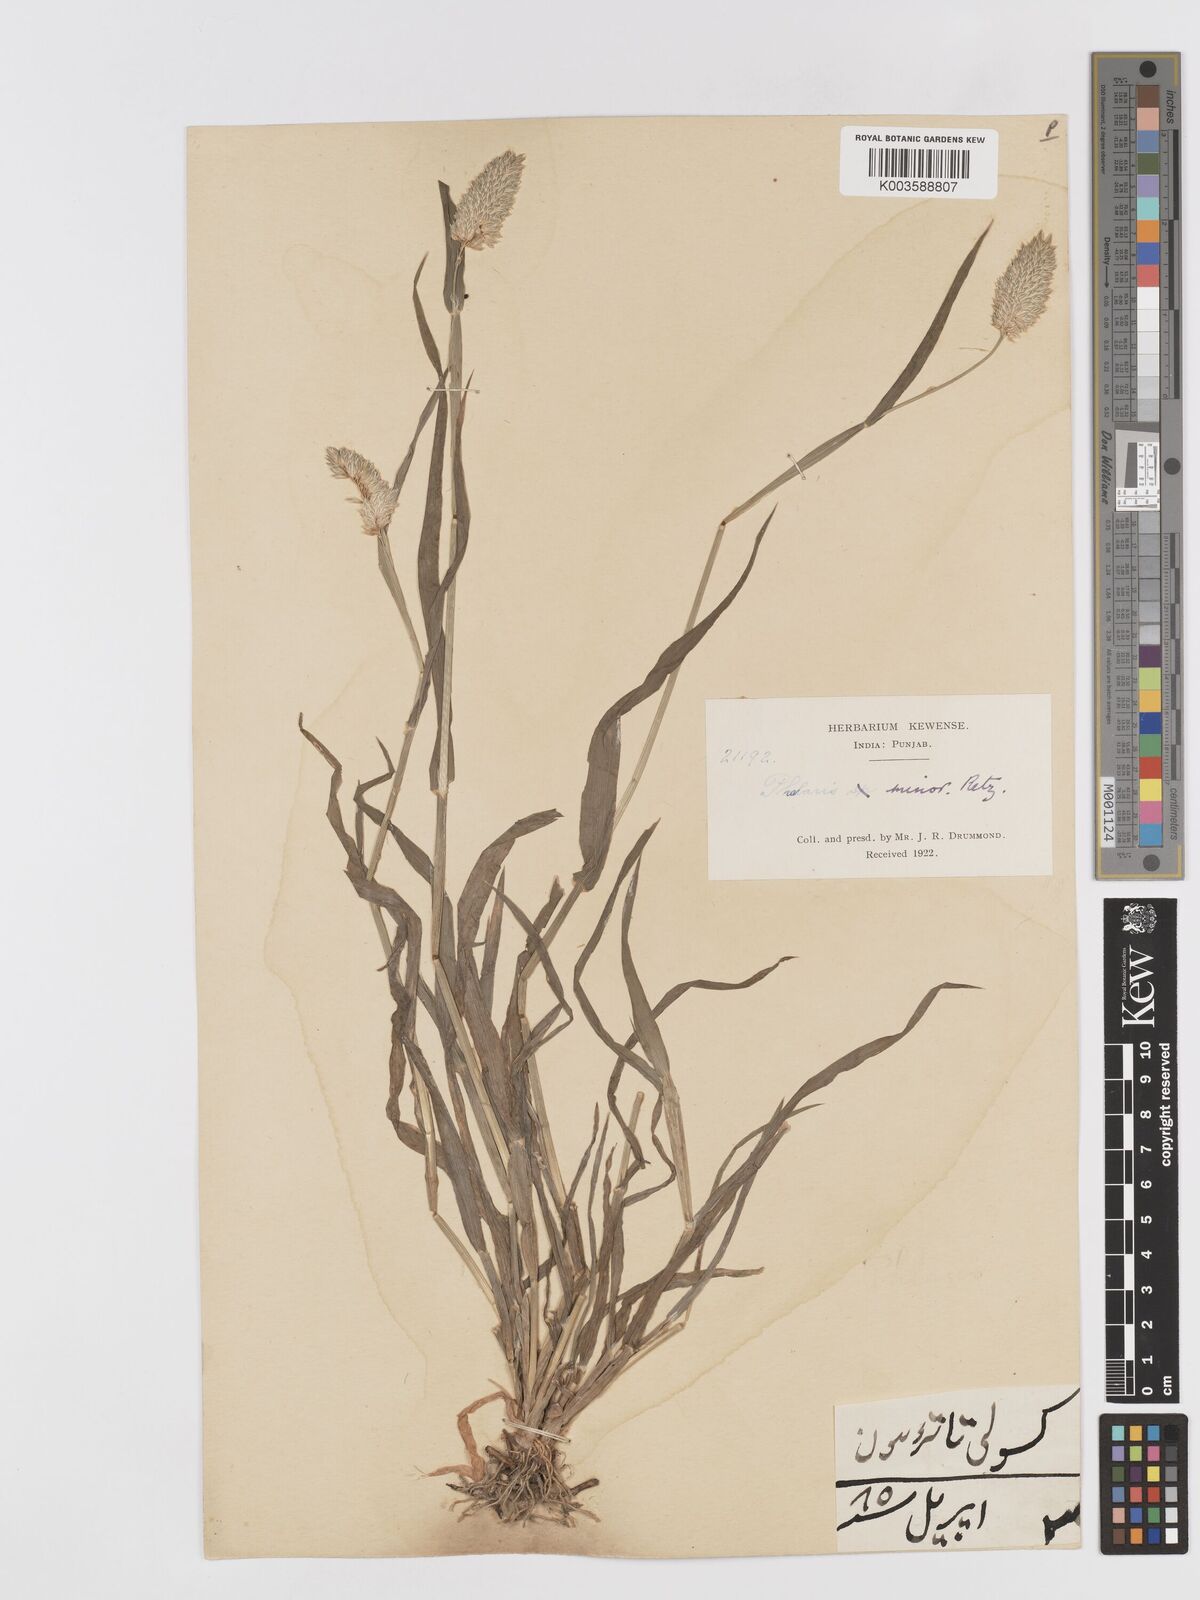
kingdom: Plantae
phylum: Tracheophyta
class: Liliopsida
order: Poales
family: Poaceae
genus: Phalaris
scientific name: Phalaris minor
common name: Littleseed canarygrass
